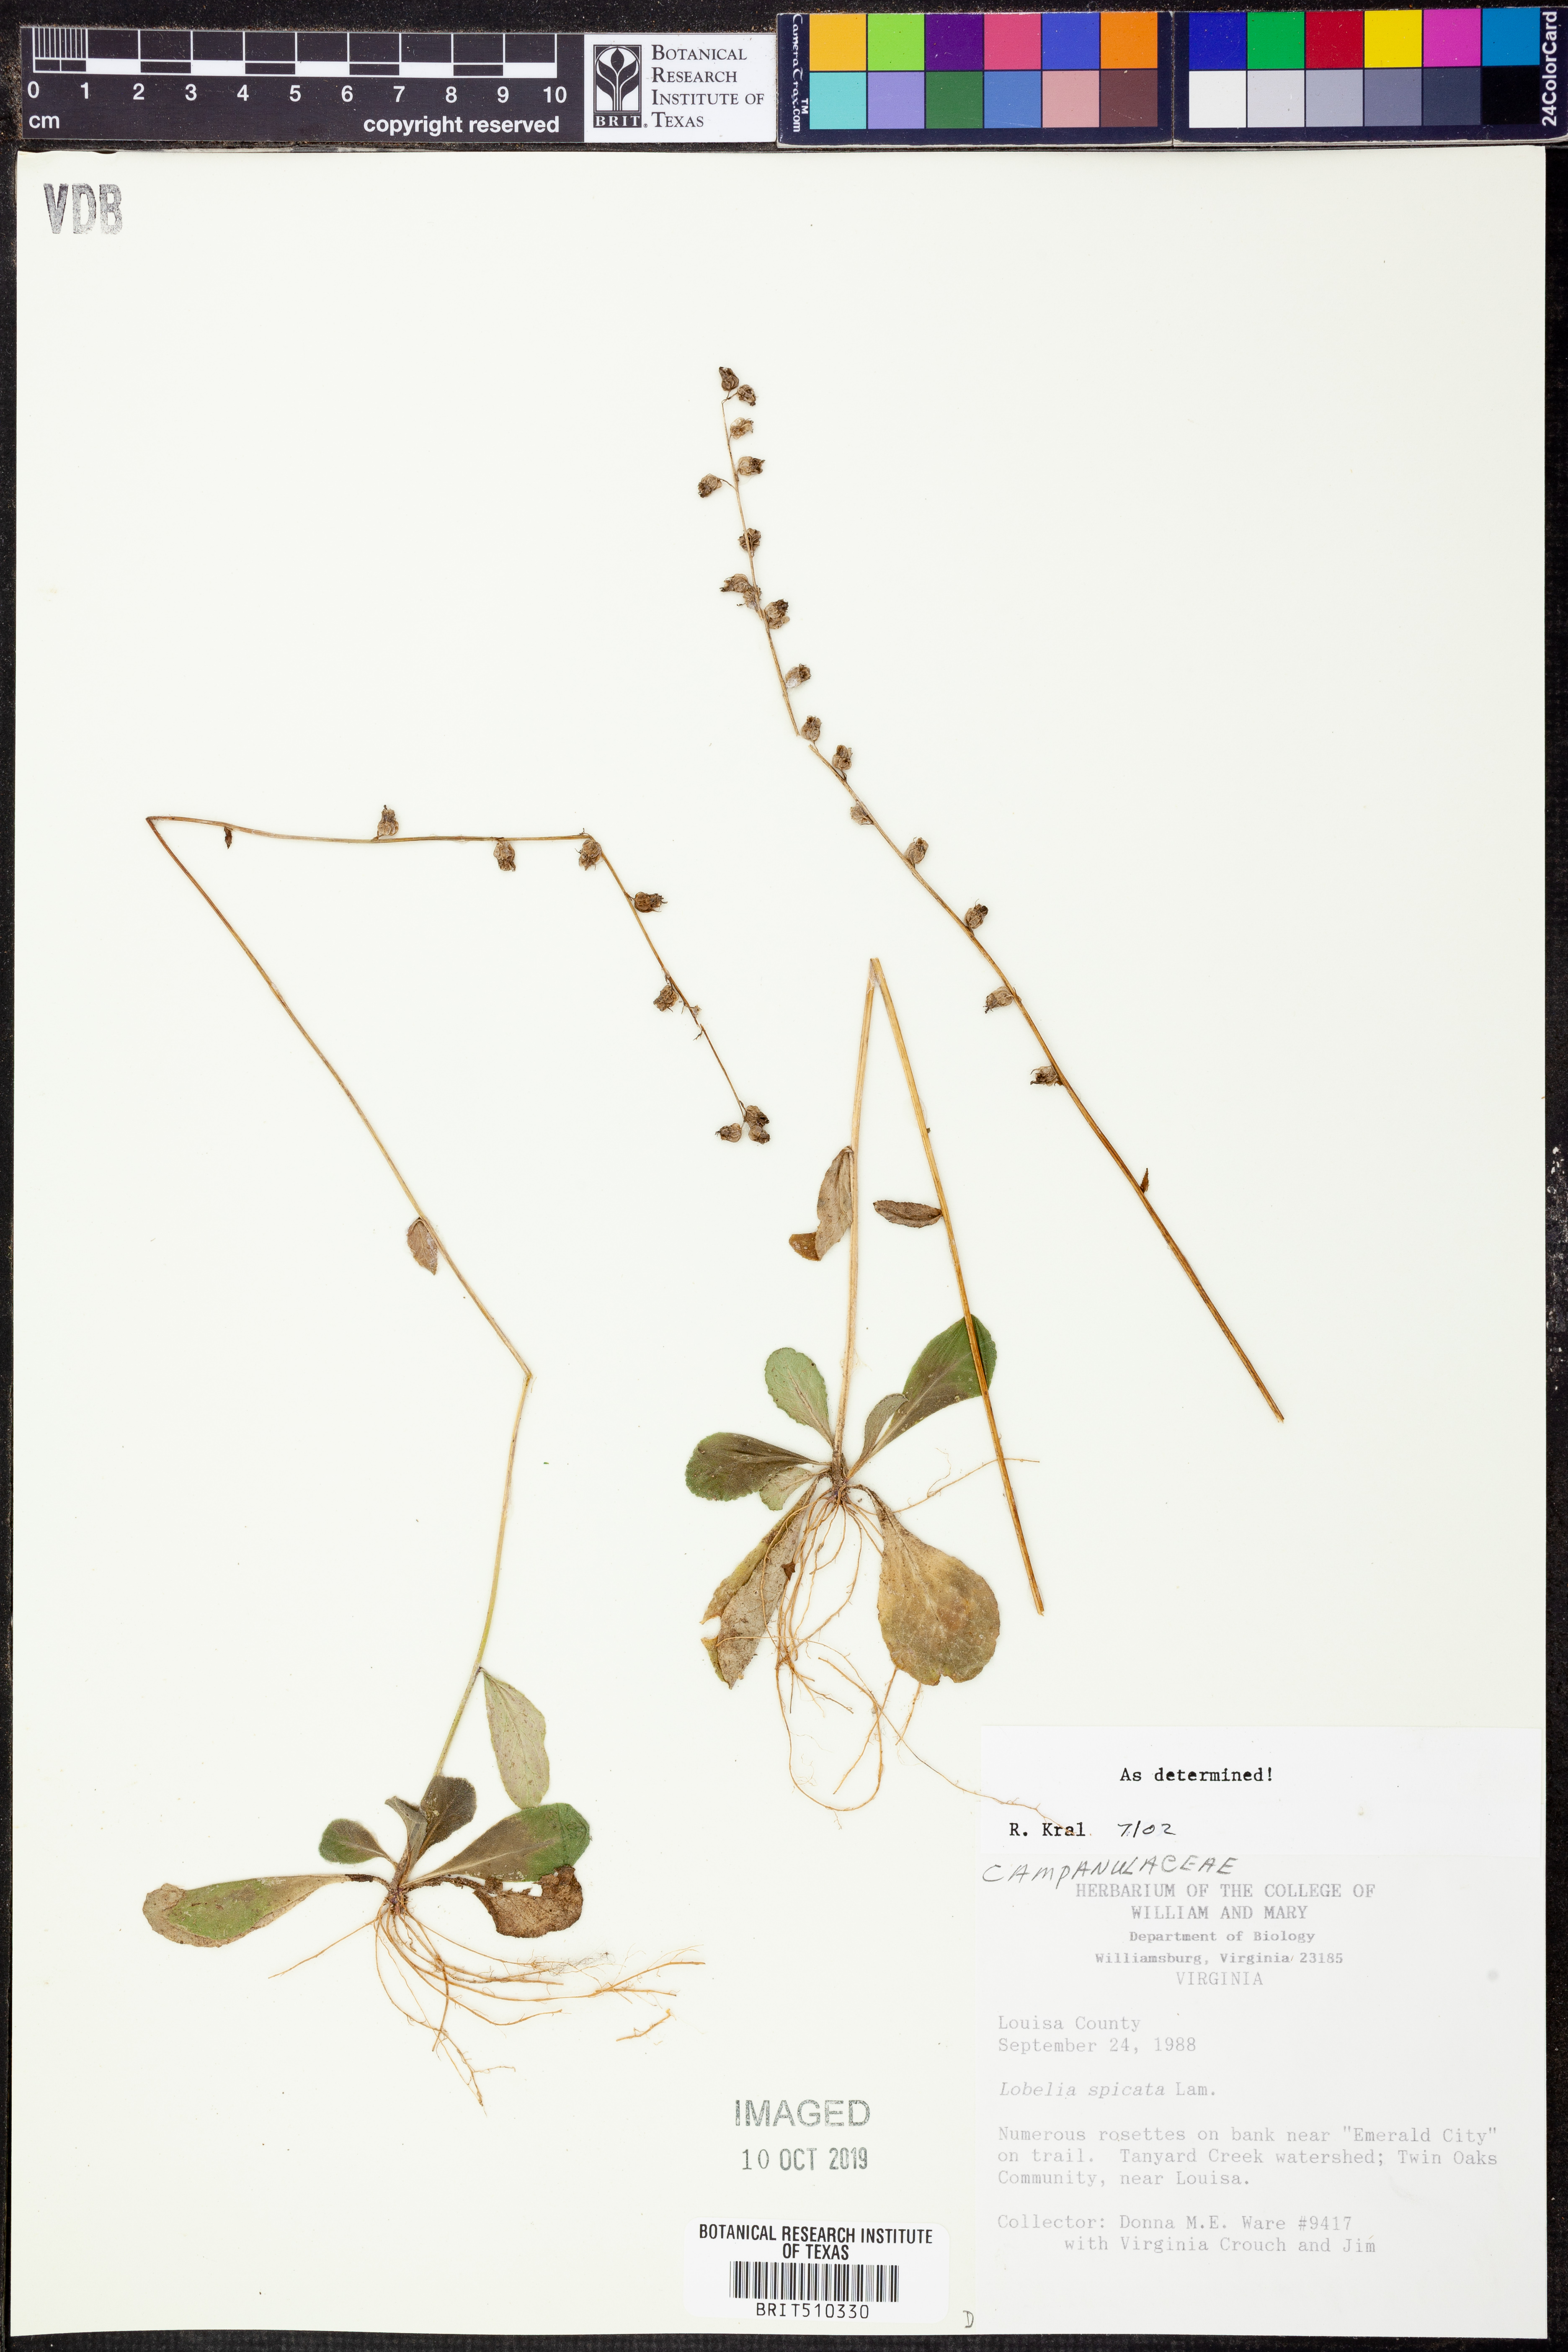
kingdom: Plantae
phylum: Tracheophyta
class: Magnoliopsida
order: Asterales
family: Campanulaceae
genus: Lobelia
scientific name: Lobelia spicata
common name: Pale-spike lobelia
